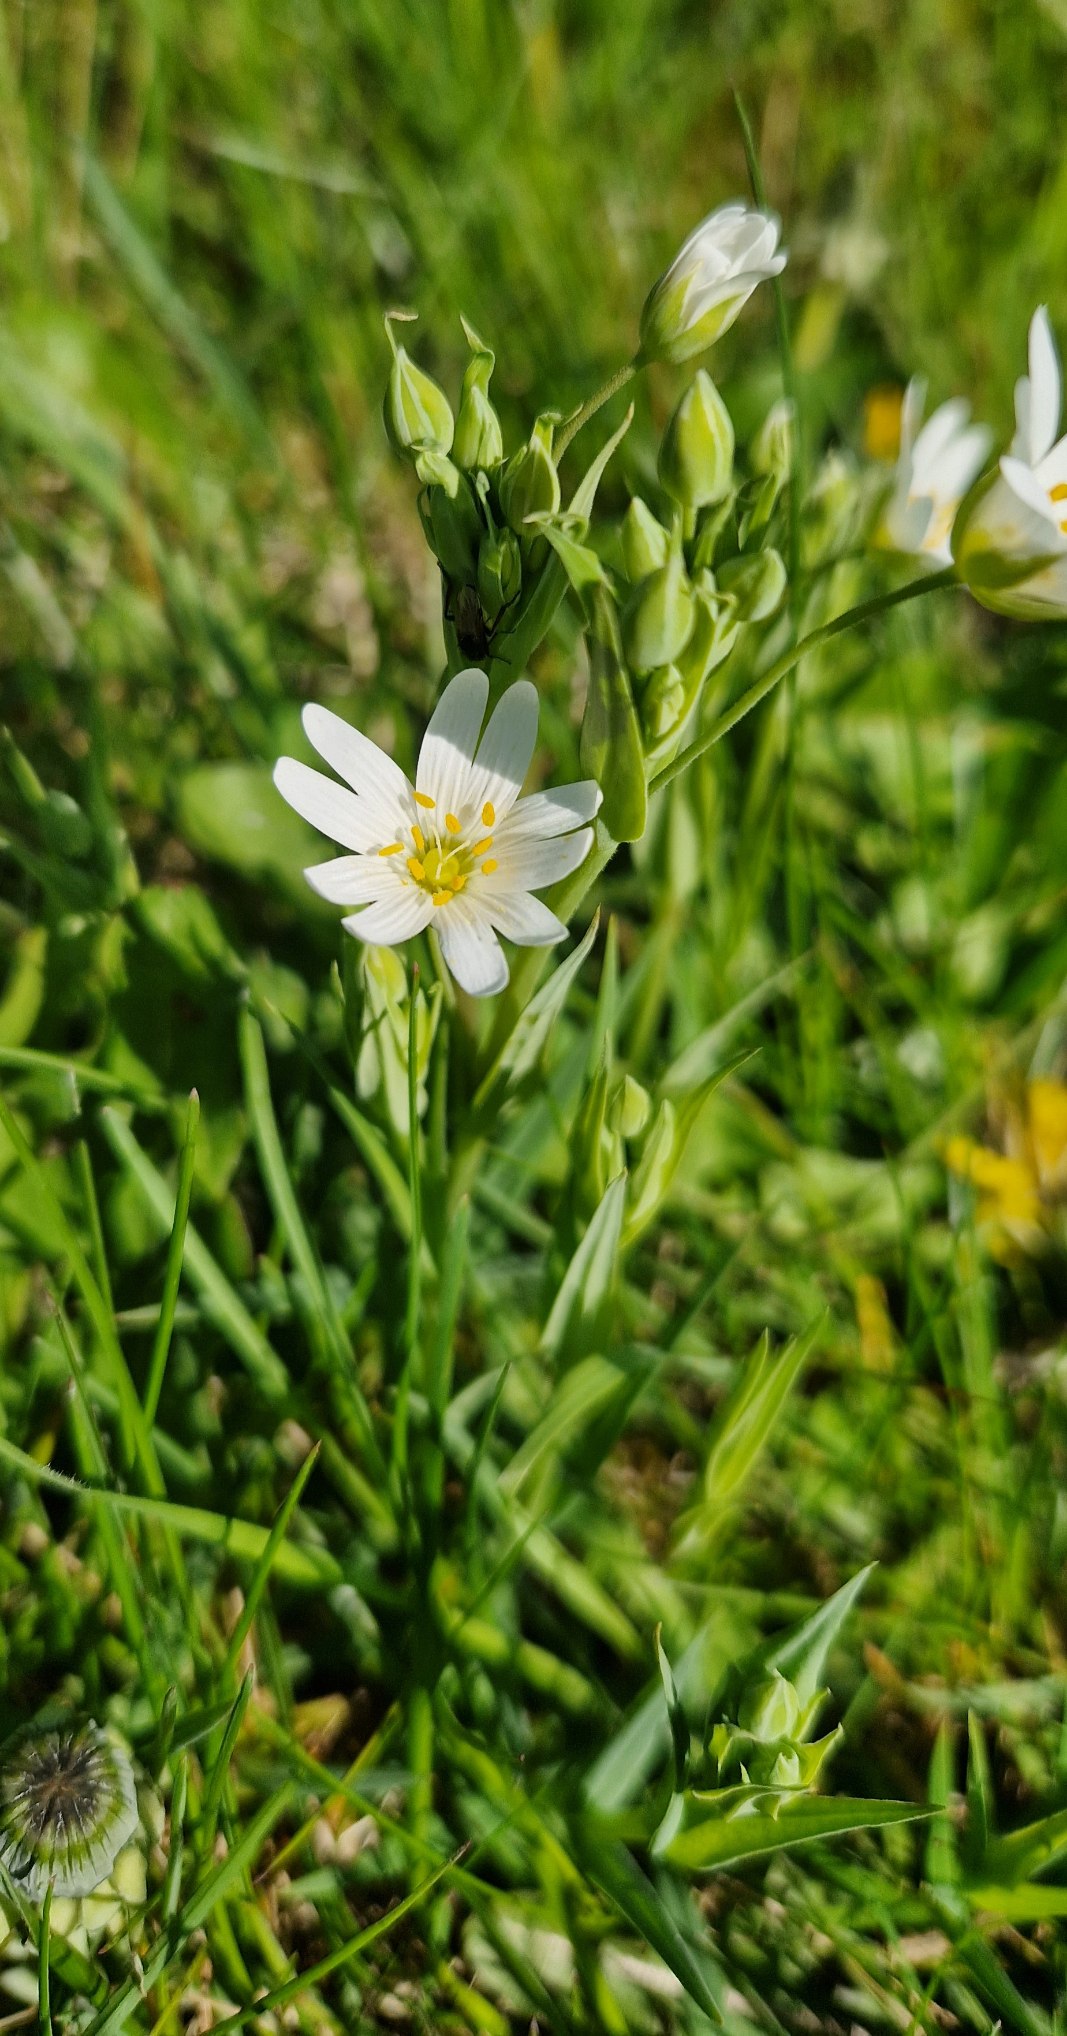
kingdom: Plantae
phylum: Tracheophyta
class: Magnoliopsida
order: Caryophyllales
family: Caryophyllaceae
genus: Rabelera
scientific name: Rabelera holostea
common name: Stor fladstjerne
